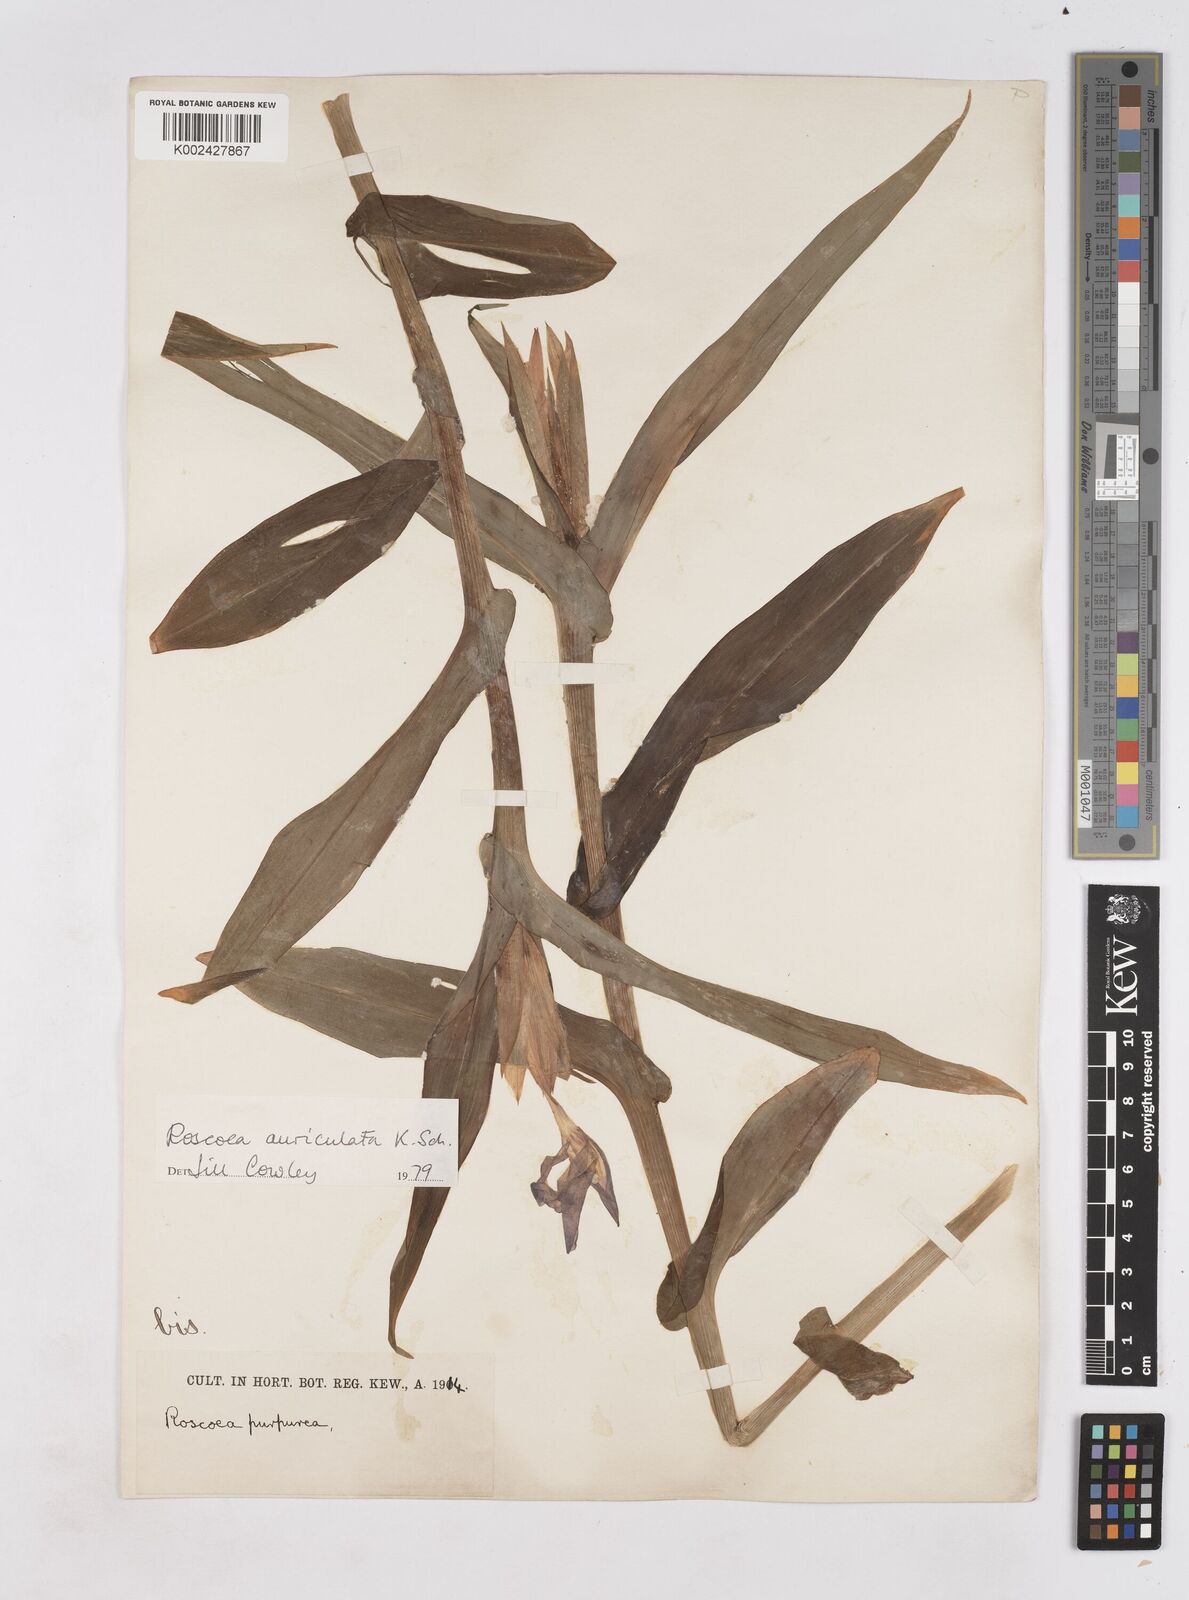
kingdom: Plantae
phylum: Tracheophyta
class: Liliopsida
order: Zingiberales
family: Zingiberaceae
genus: Roscoea
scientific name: Roscoea auriculata
